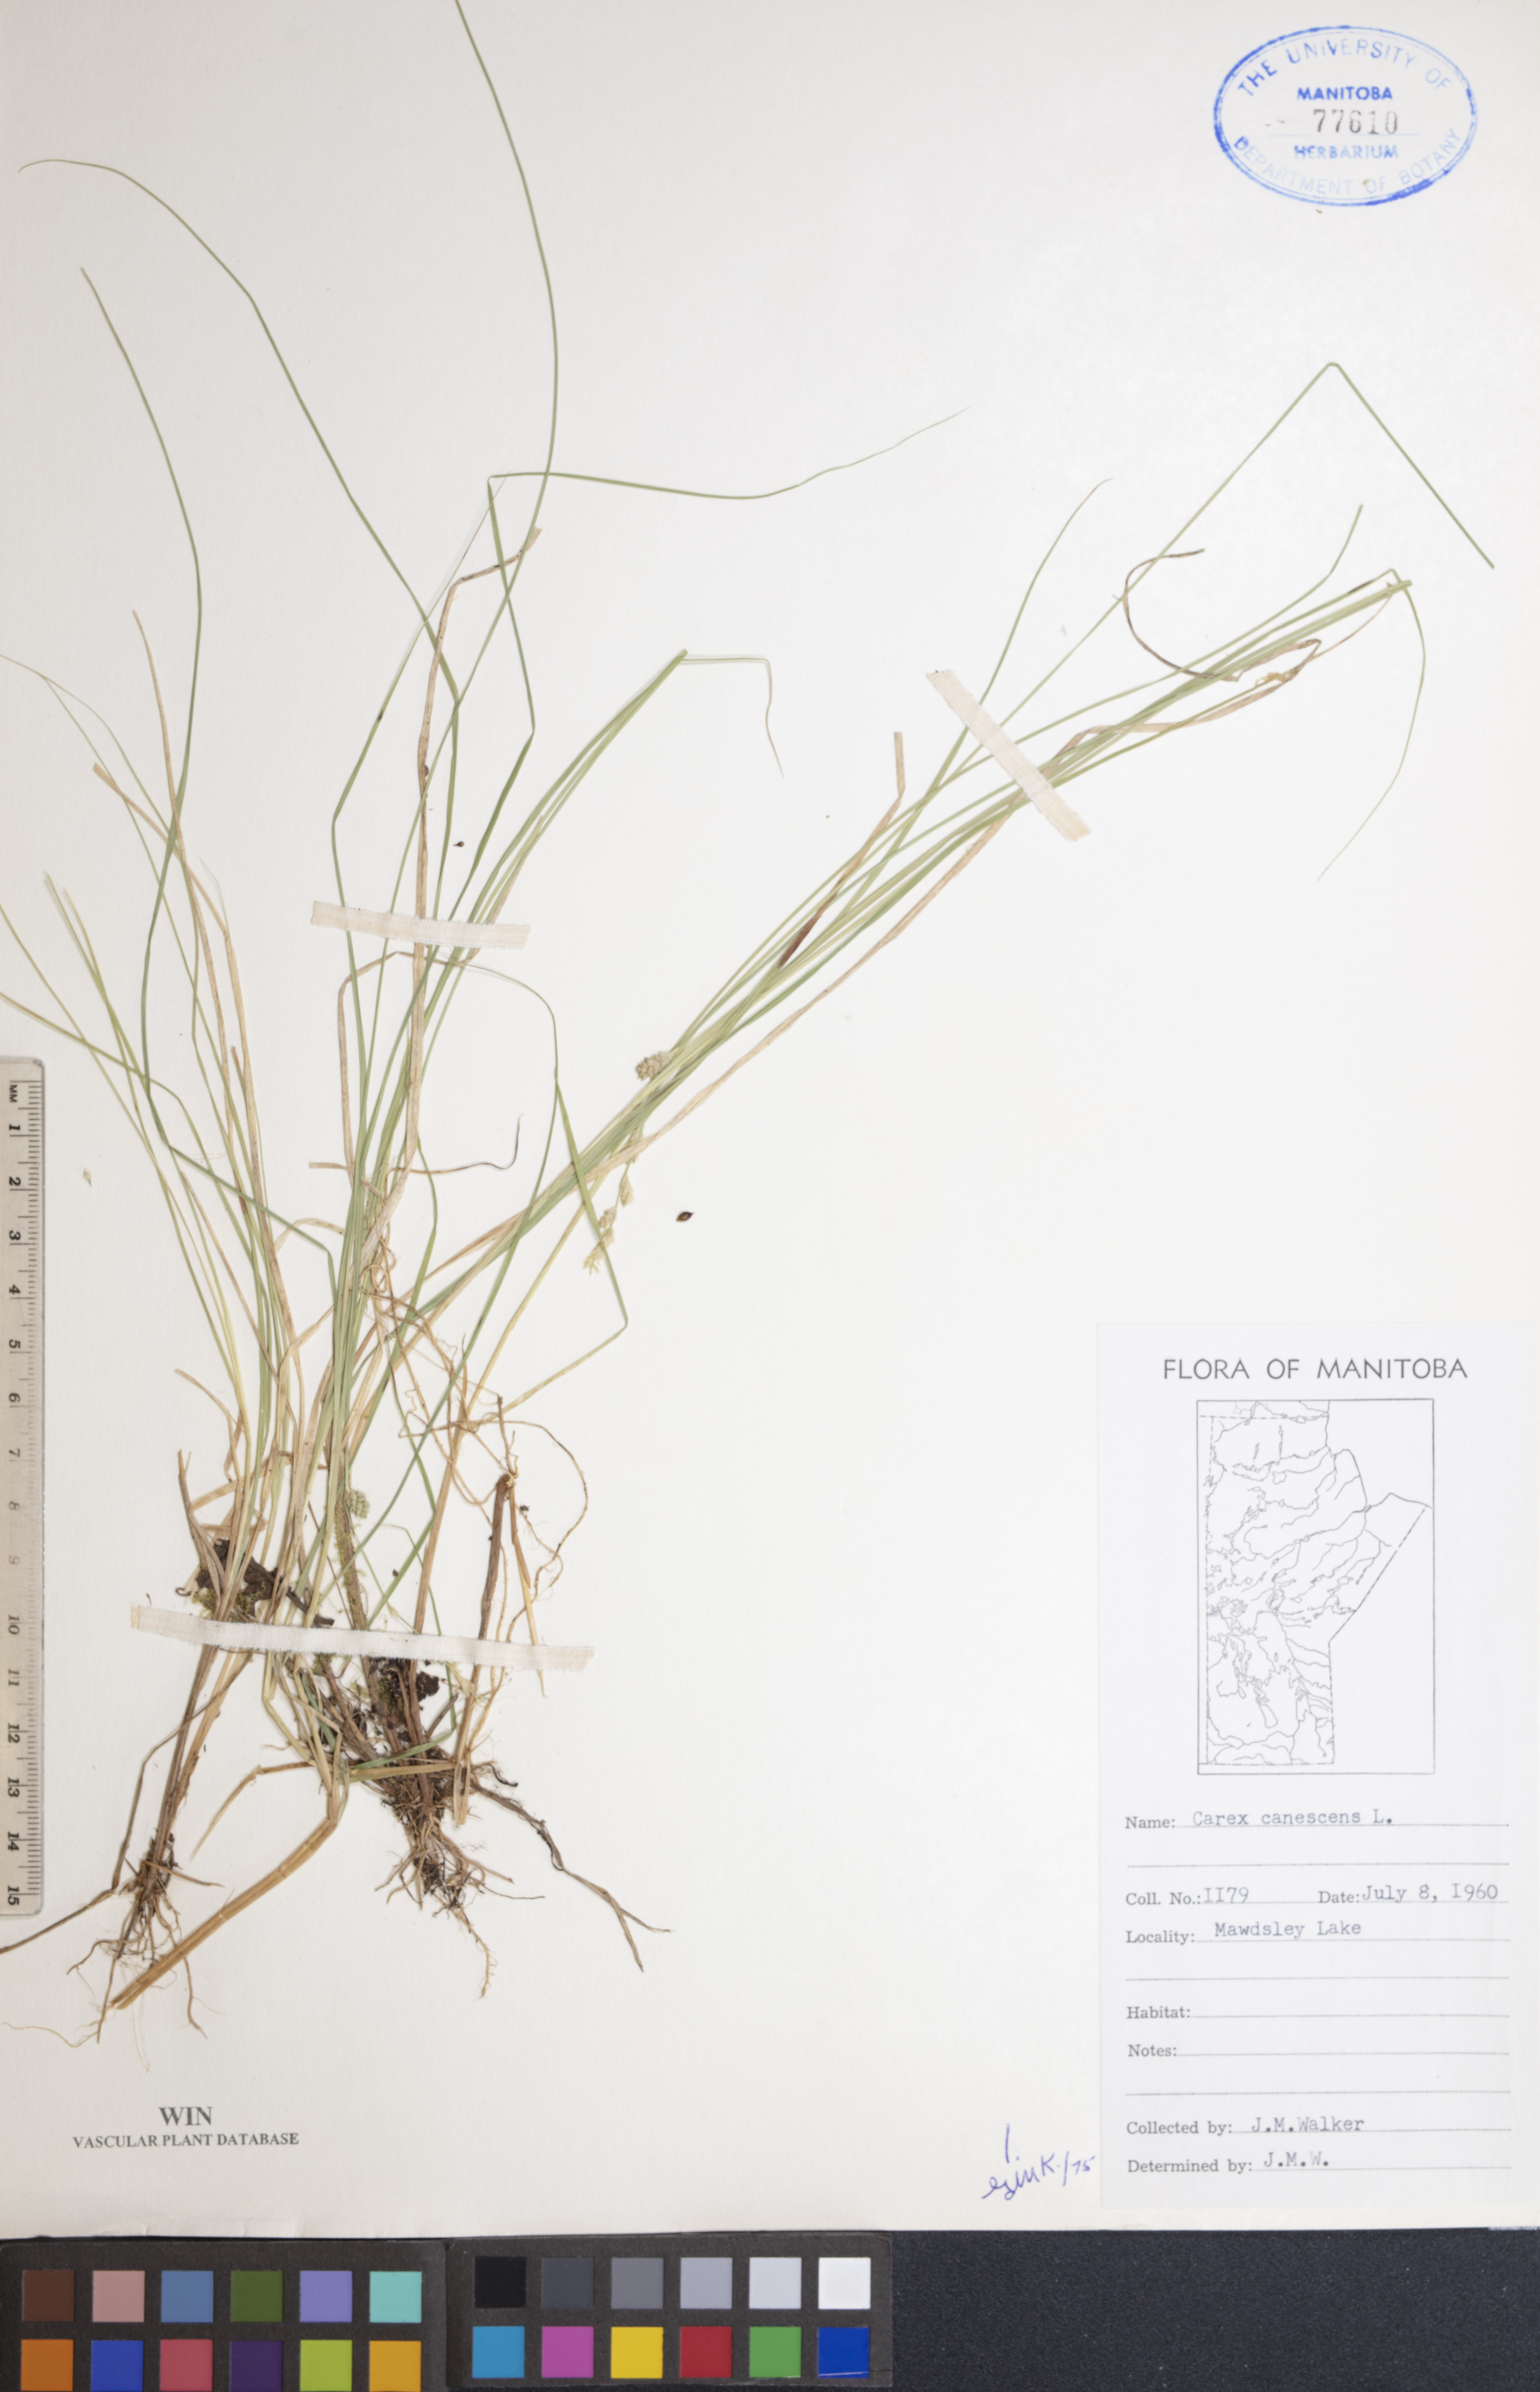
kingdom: Plantae
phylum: Tracheophyta
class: Liliopsida
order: Poales
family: Cyperaceae
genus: Carex
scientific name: Carex canescens
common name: White sedge
